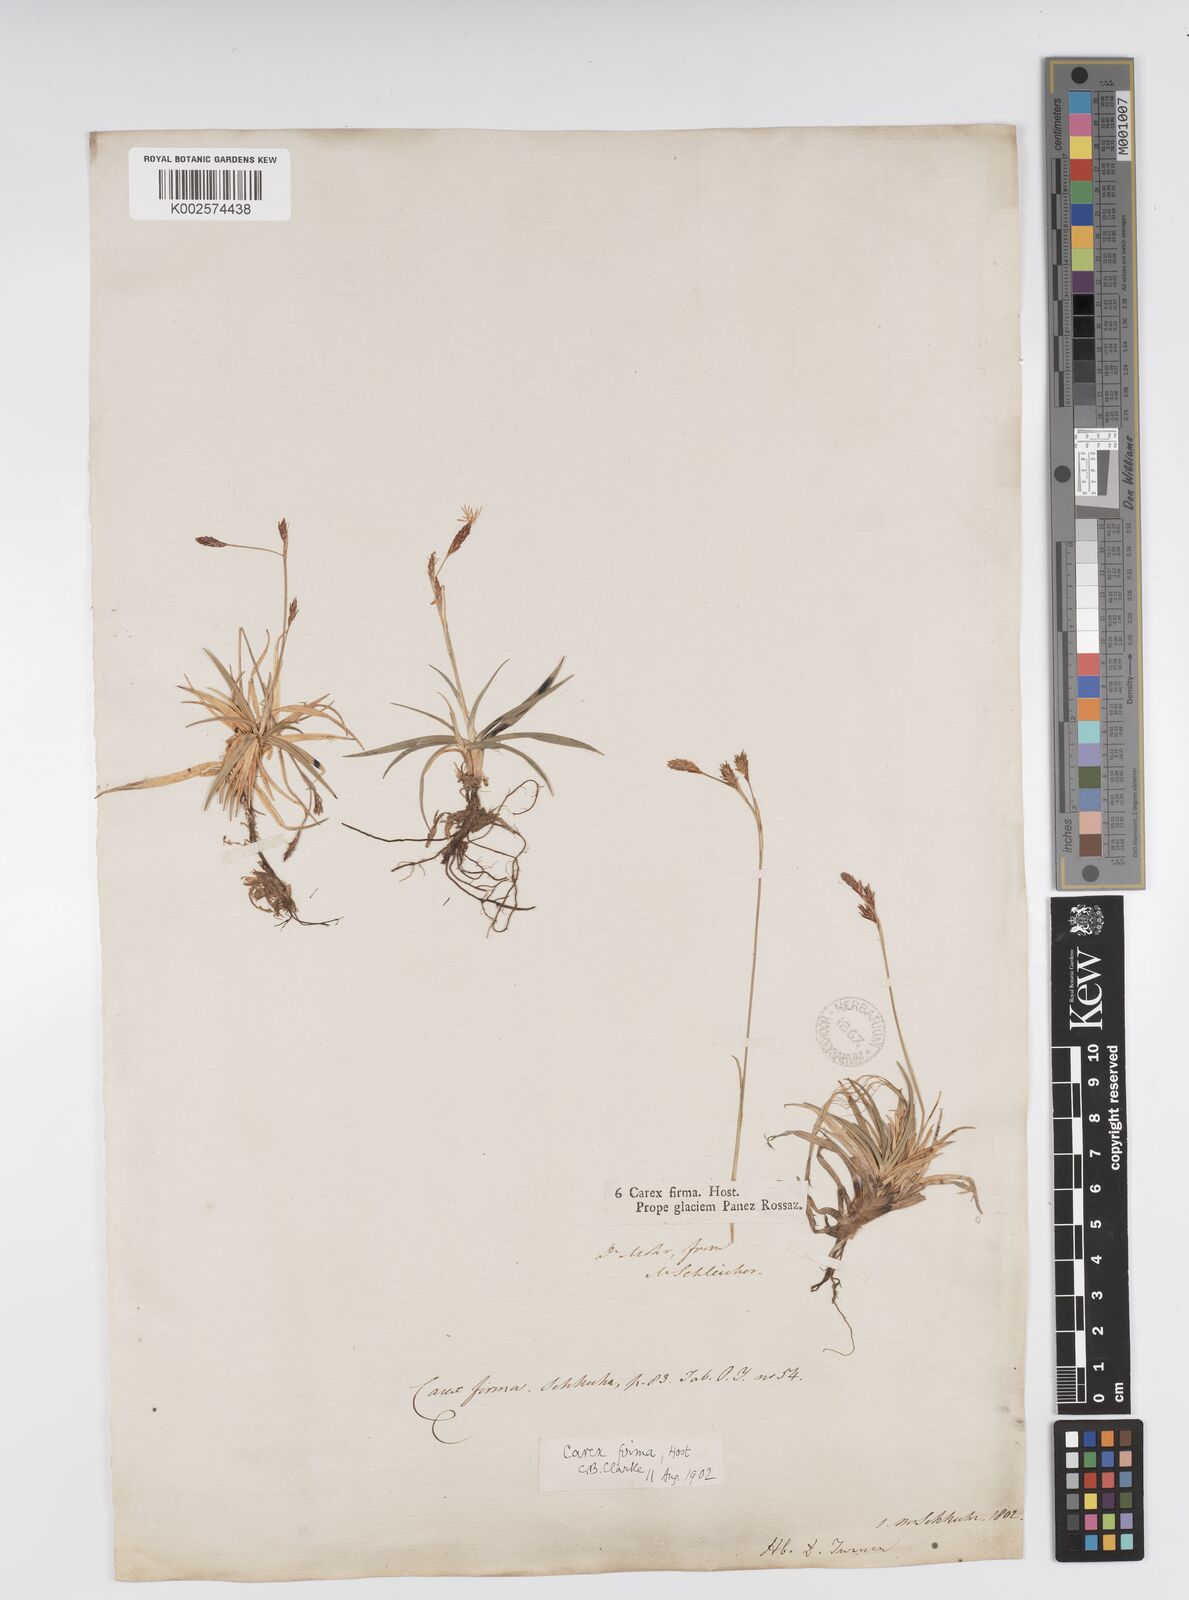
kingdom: Plantae
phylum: Tracheophyta
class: Liliopsida
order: Poales
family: Cyperaceae
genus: Carex
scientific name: Carex firma
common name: Dwarf pillow sedge
